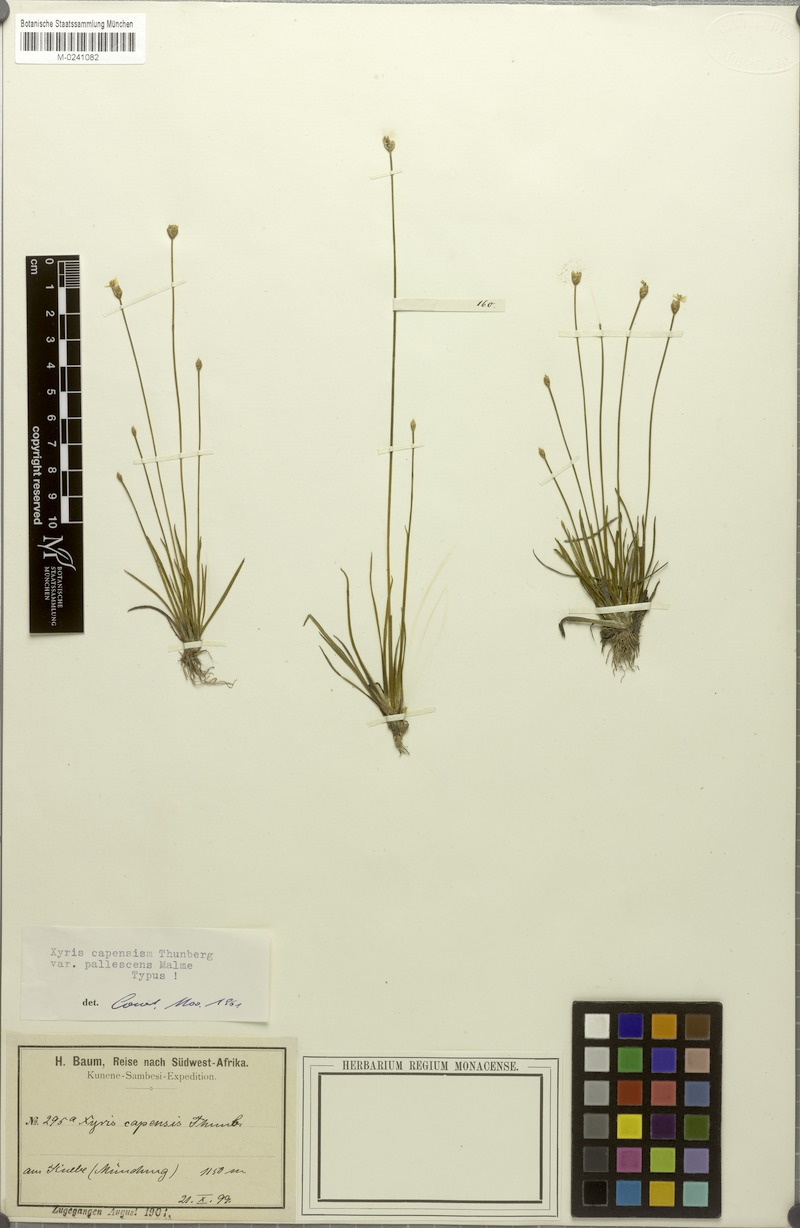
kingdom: Plantae
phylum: Tracheophyta
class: Liliopsida
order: Poales
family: Xyridaceae
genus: Xyris
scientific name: Xyris capensis
